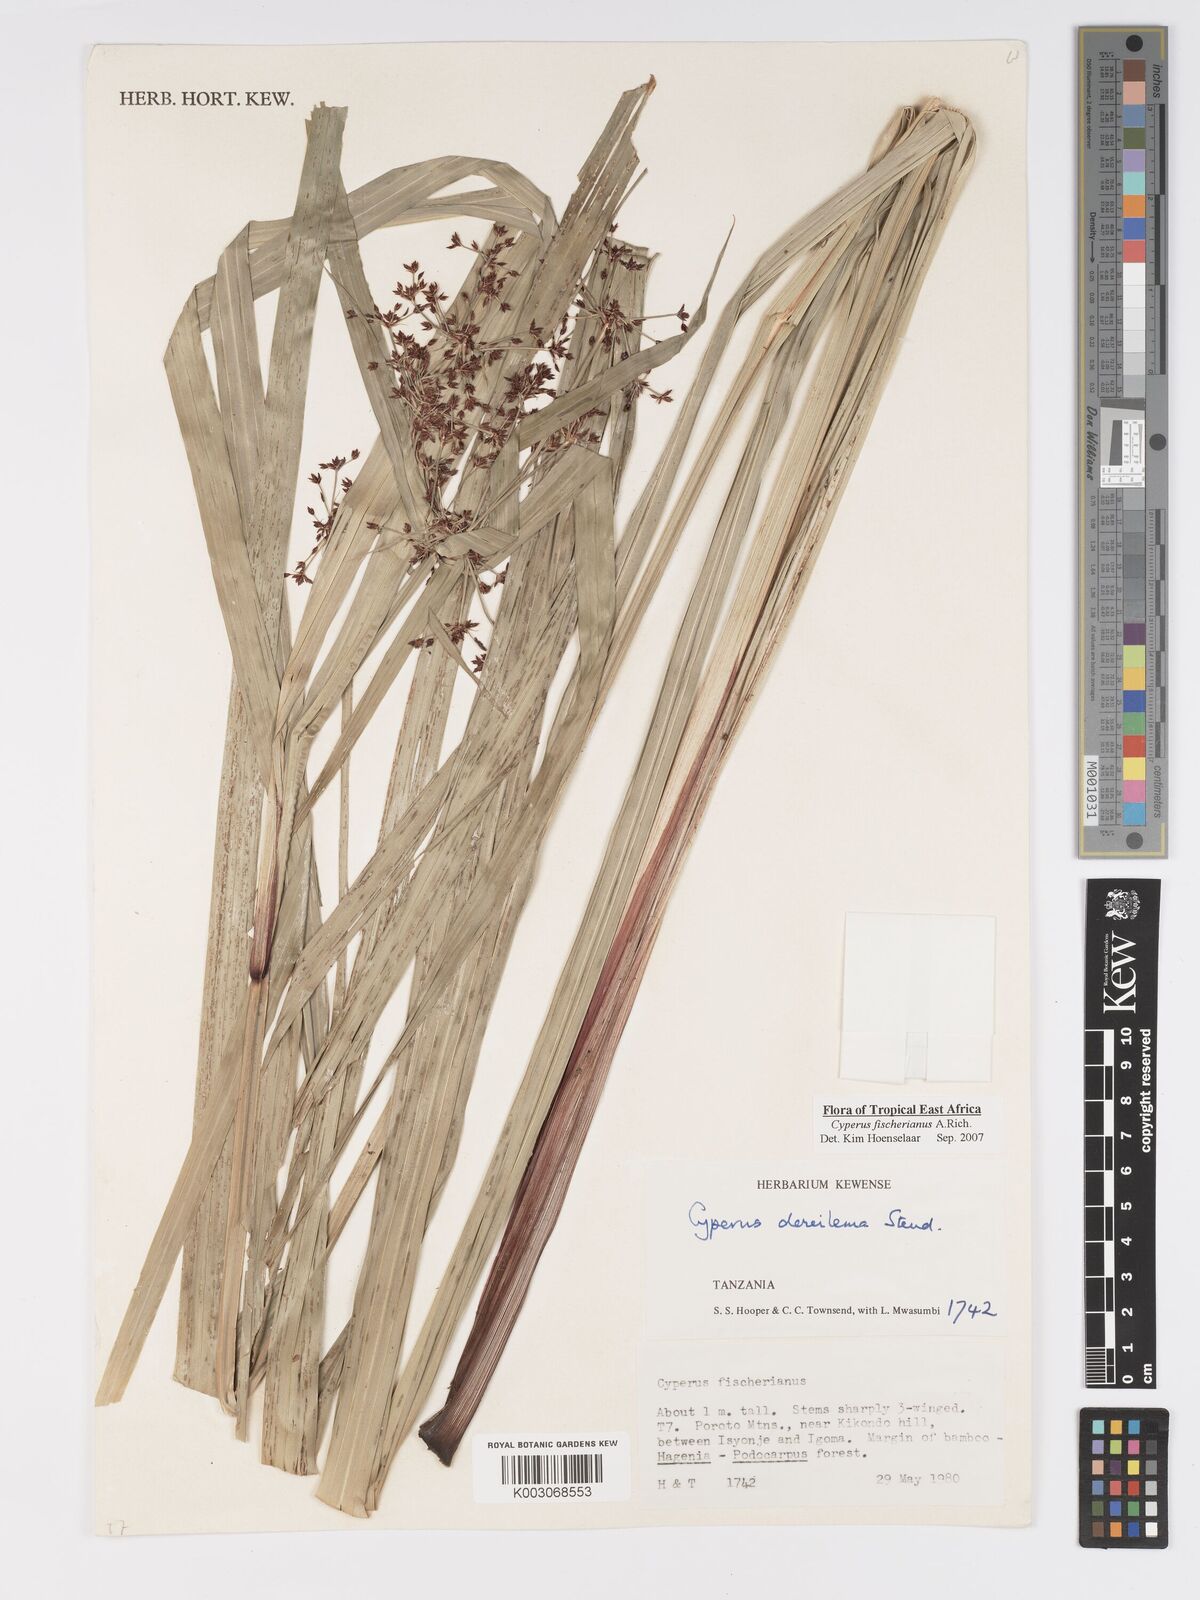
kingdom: Plantae
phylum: Tracheophyta
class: Liliopsida
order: Poales
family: Cyperaceae
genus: Cyperus
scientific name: Cyperus fischerianus
